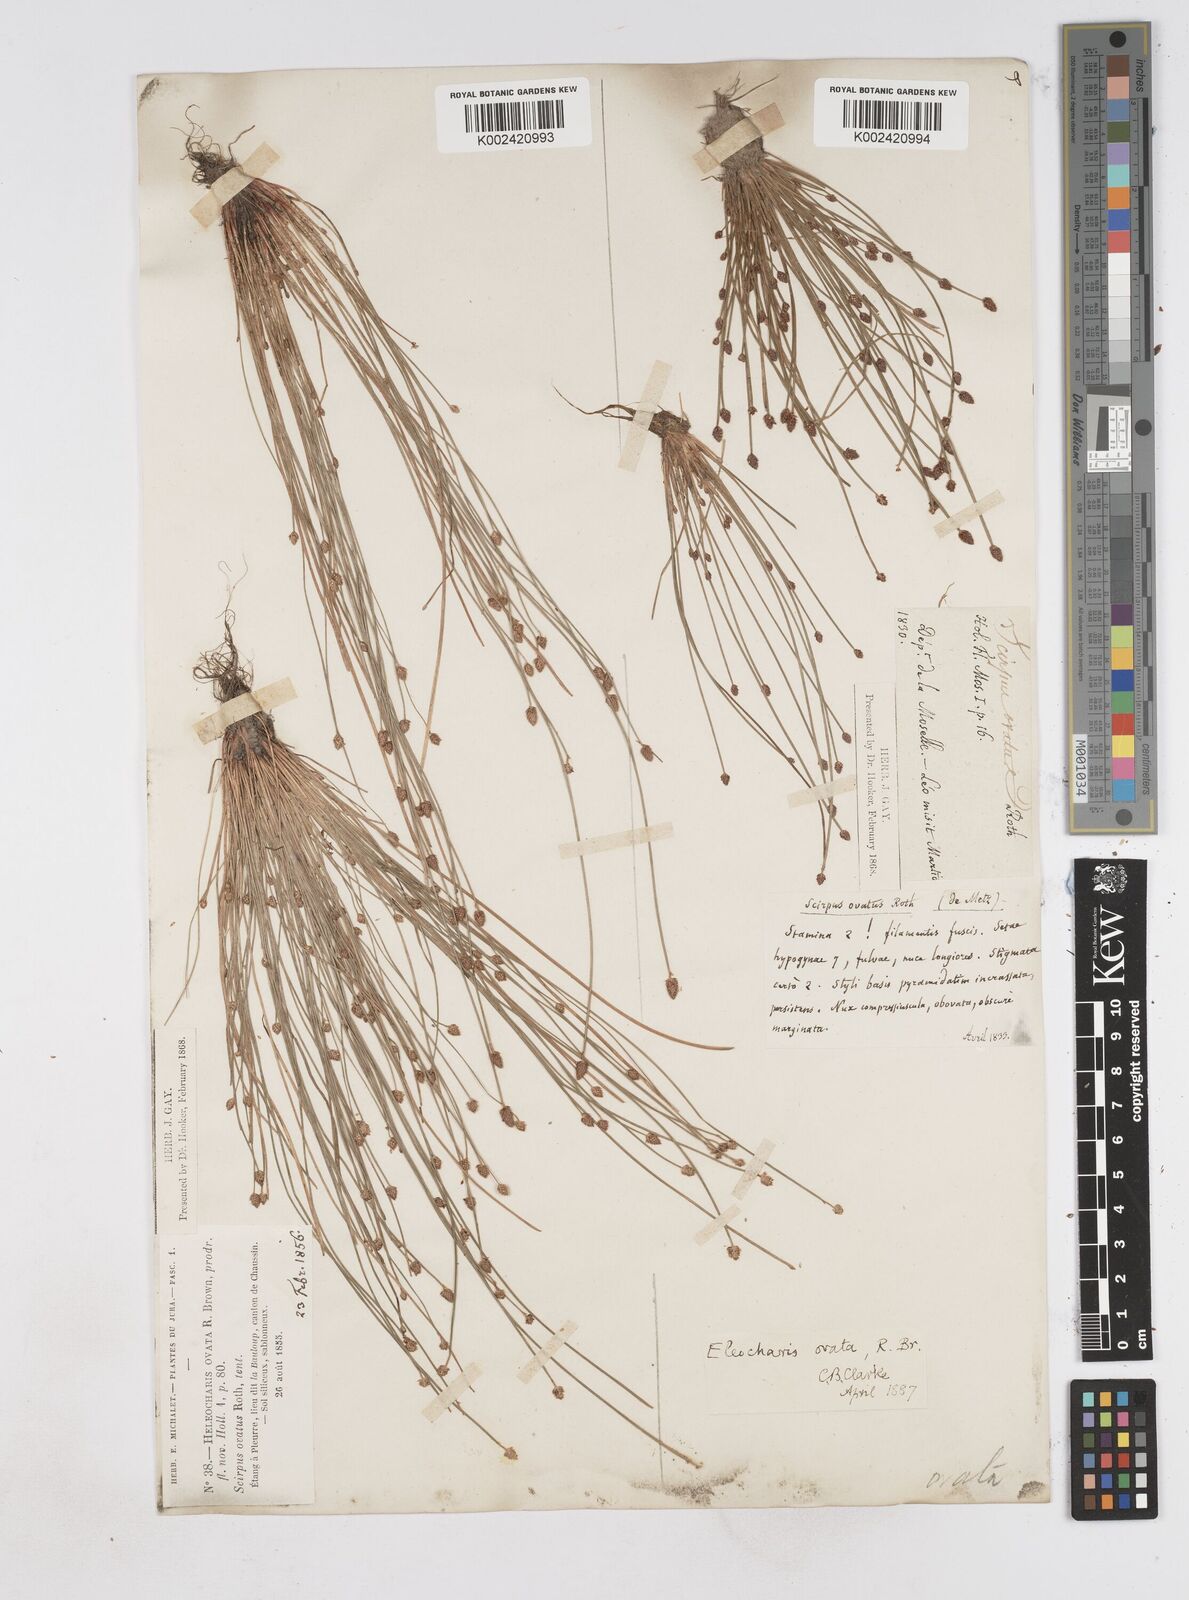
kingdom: Plantae
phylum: Tracheophyta
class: Liliopsida
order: Poales
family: Cyperaceae
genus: Eleocharis
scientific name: Eleocharis ovata
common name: Oval spike-rush
